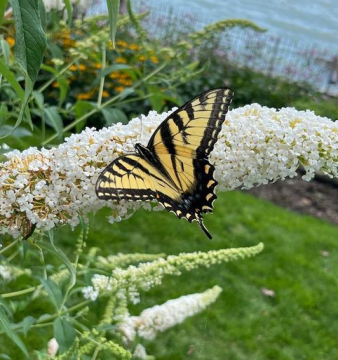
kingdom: Animalia
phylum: Arthropoda
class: Insecta
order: Lepidoptera
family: Papilionidae
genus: Pterourus
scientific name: Pterourus glaucus
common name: Eastern Tiger Swallowtail
